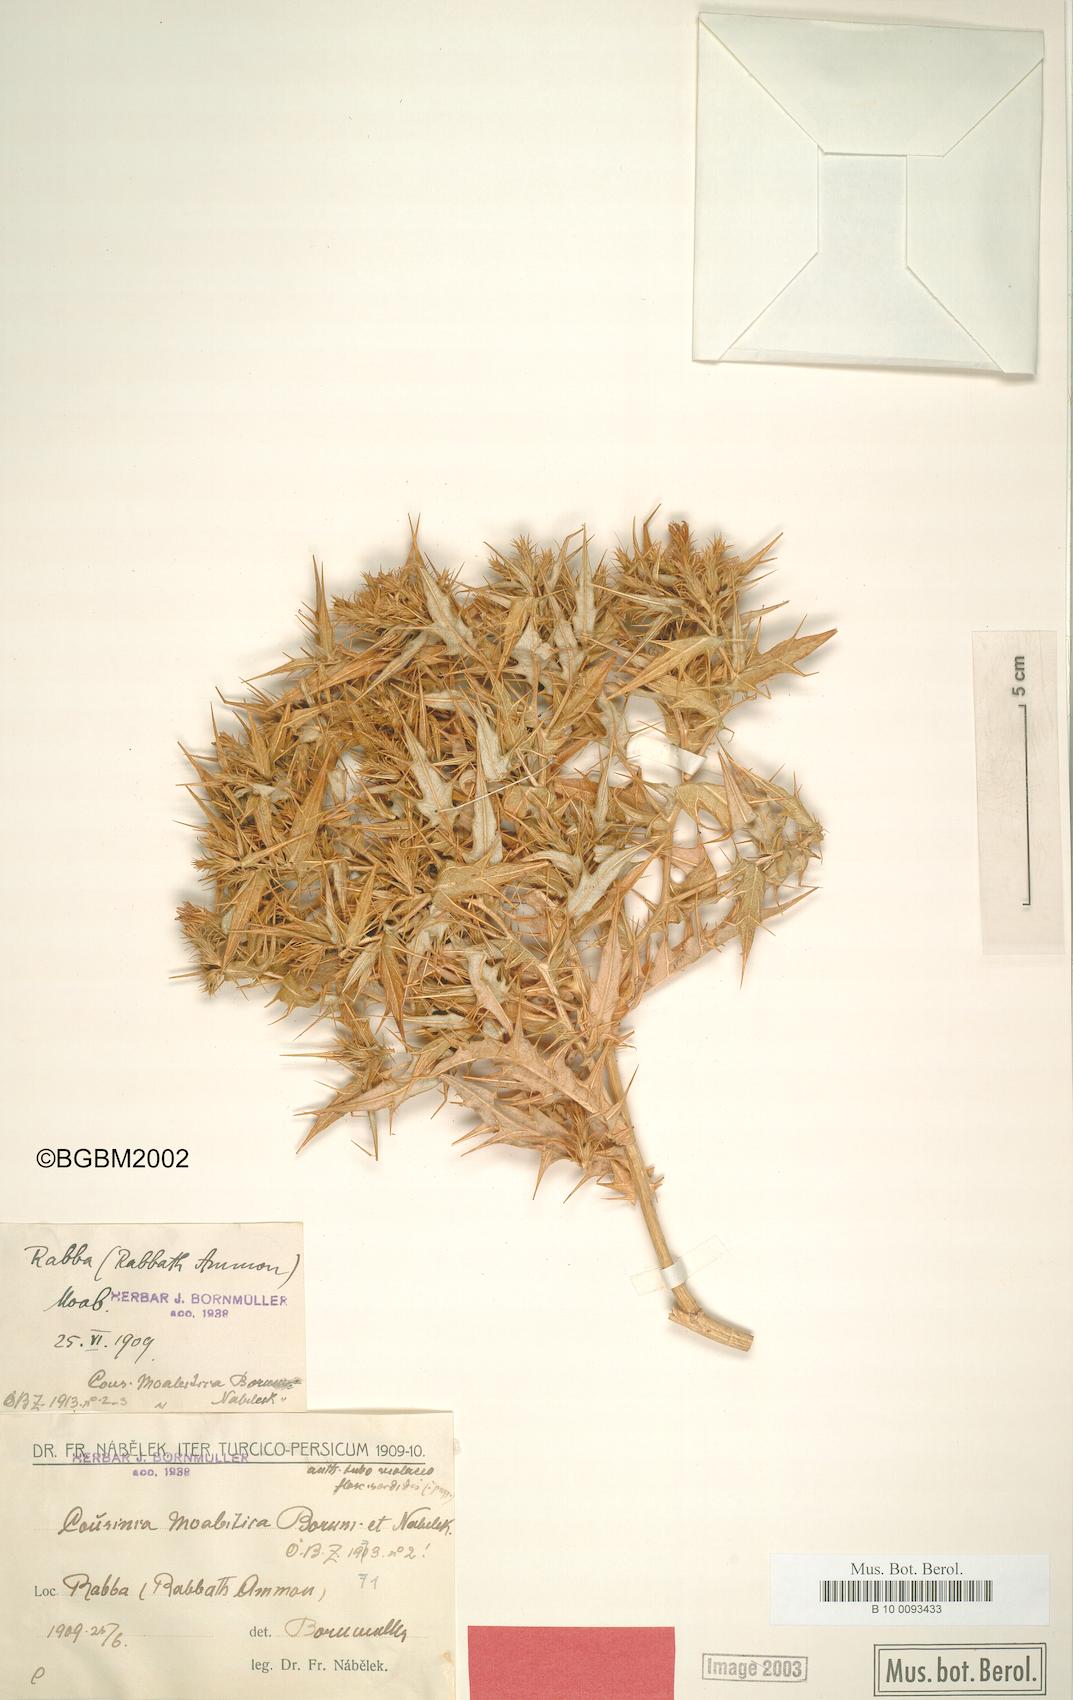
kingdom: Plantae
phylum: Tracheophyta
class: Magnoliopsida
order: Asterales
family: Asteraceae
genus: Cousinia
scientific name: Cousinia moabitica
